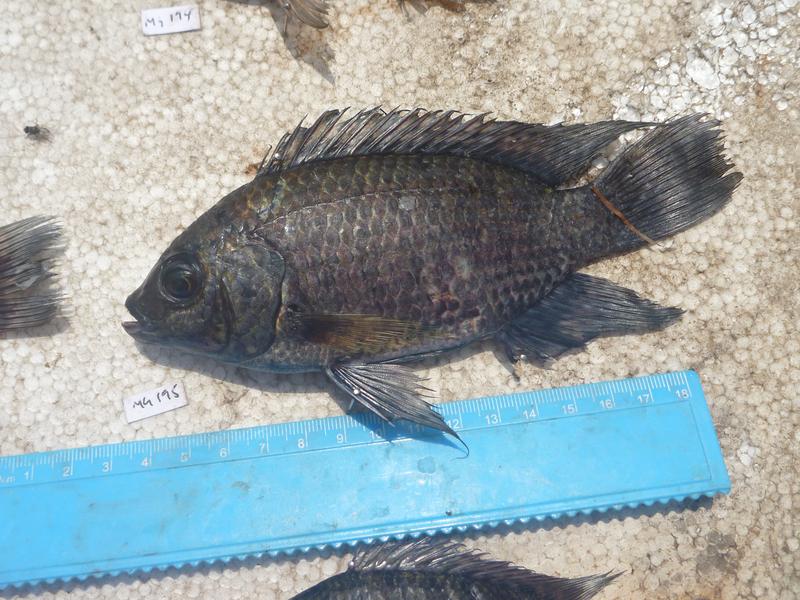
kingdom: Animalia
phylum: Chordata
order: Perciformes
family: Cichlidae
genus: Oreochromis
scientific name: Oreochromis leucostictus
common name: Blue spotted tilapia
